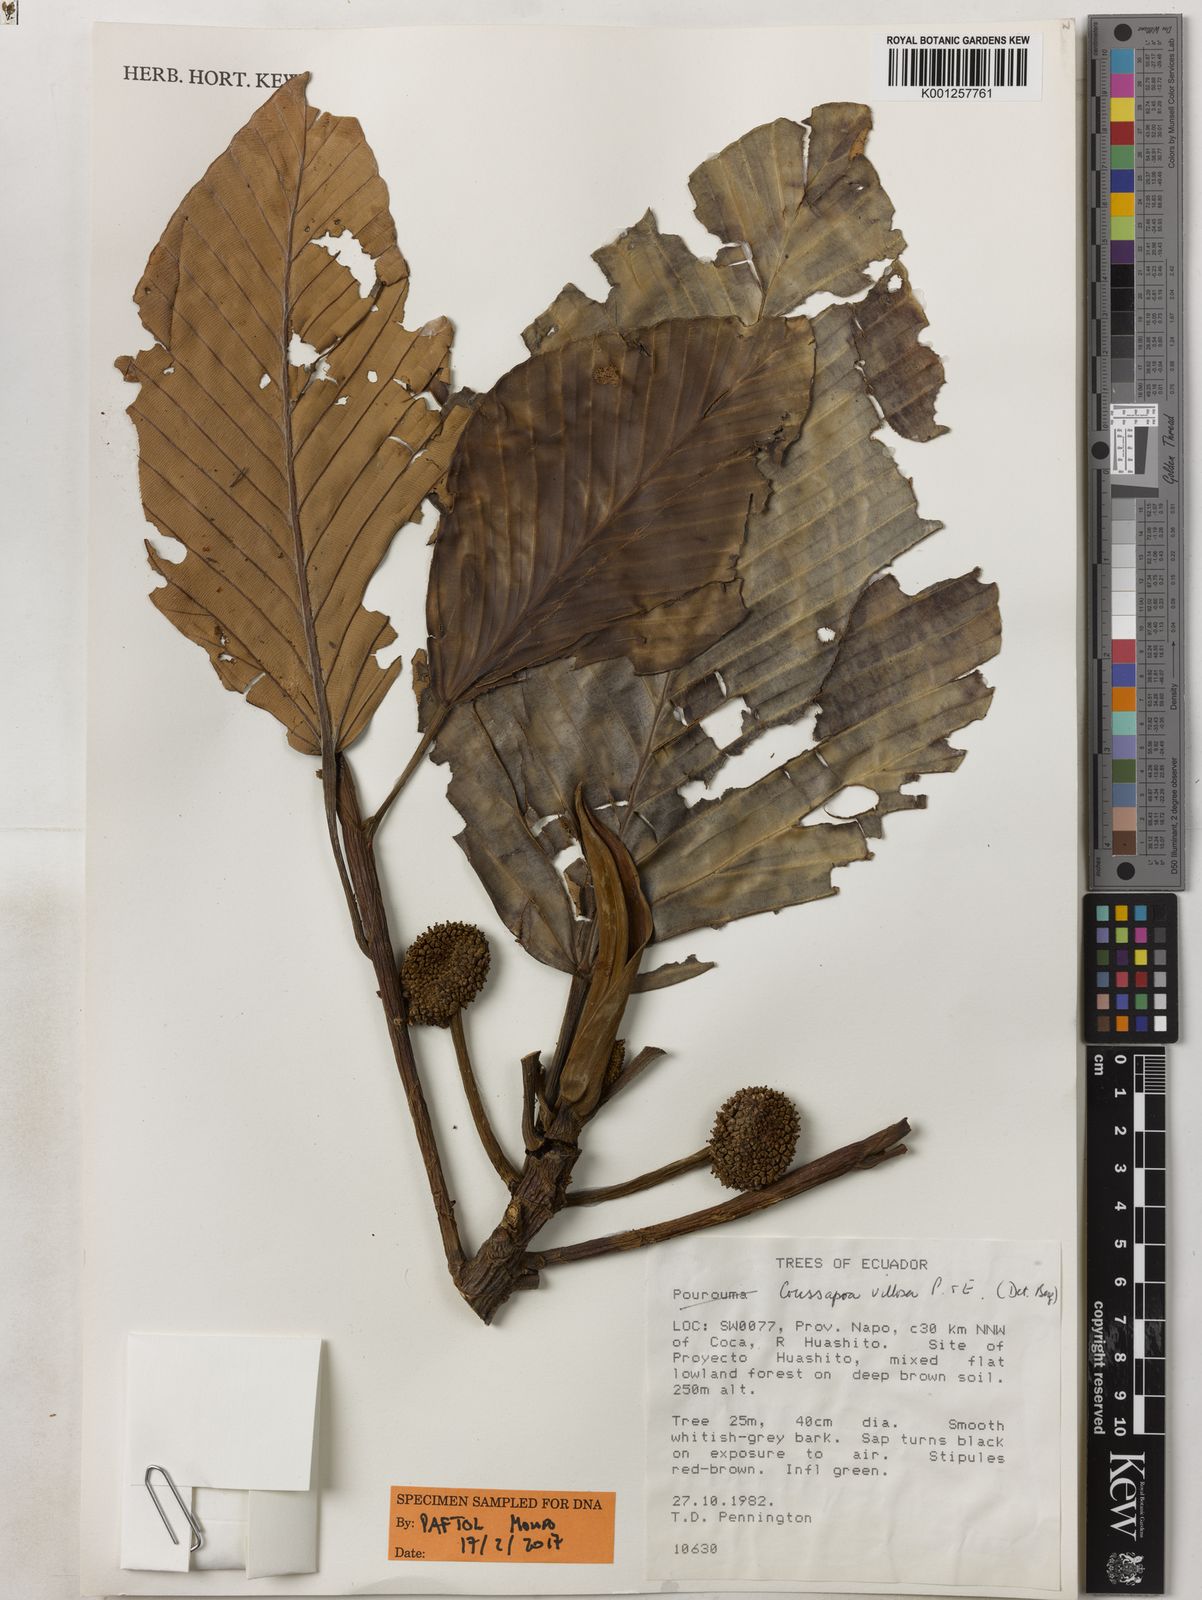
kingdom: Plantae
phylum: Tracheophyta
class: Magnoliopsida
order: Rosales
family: Urticaceae
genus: Coussapoa
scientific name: Coussapoa villosa
